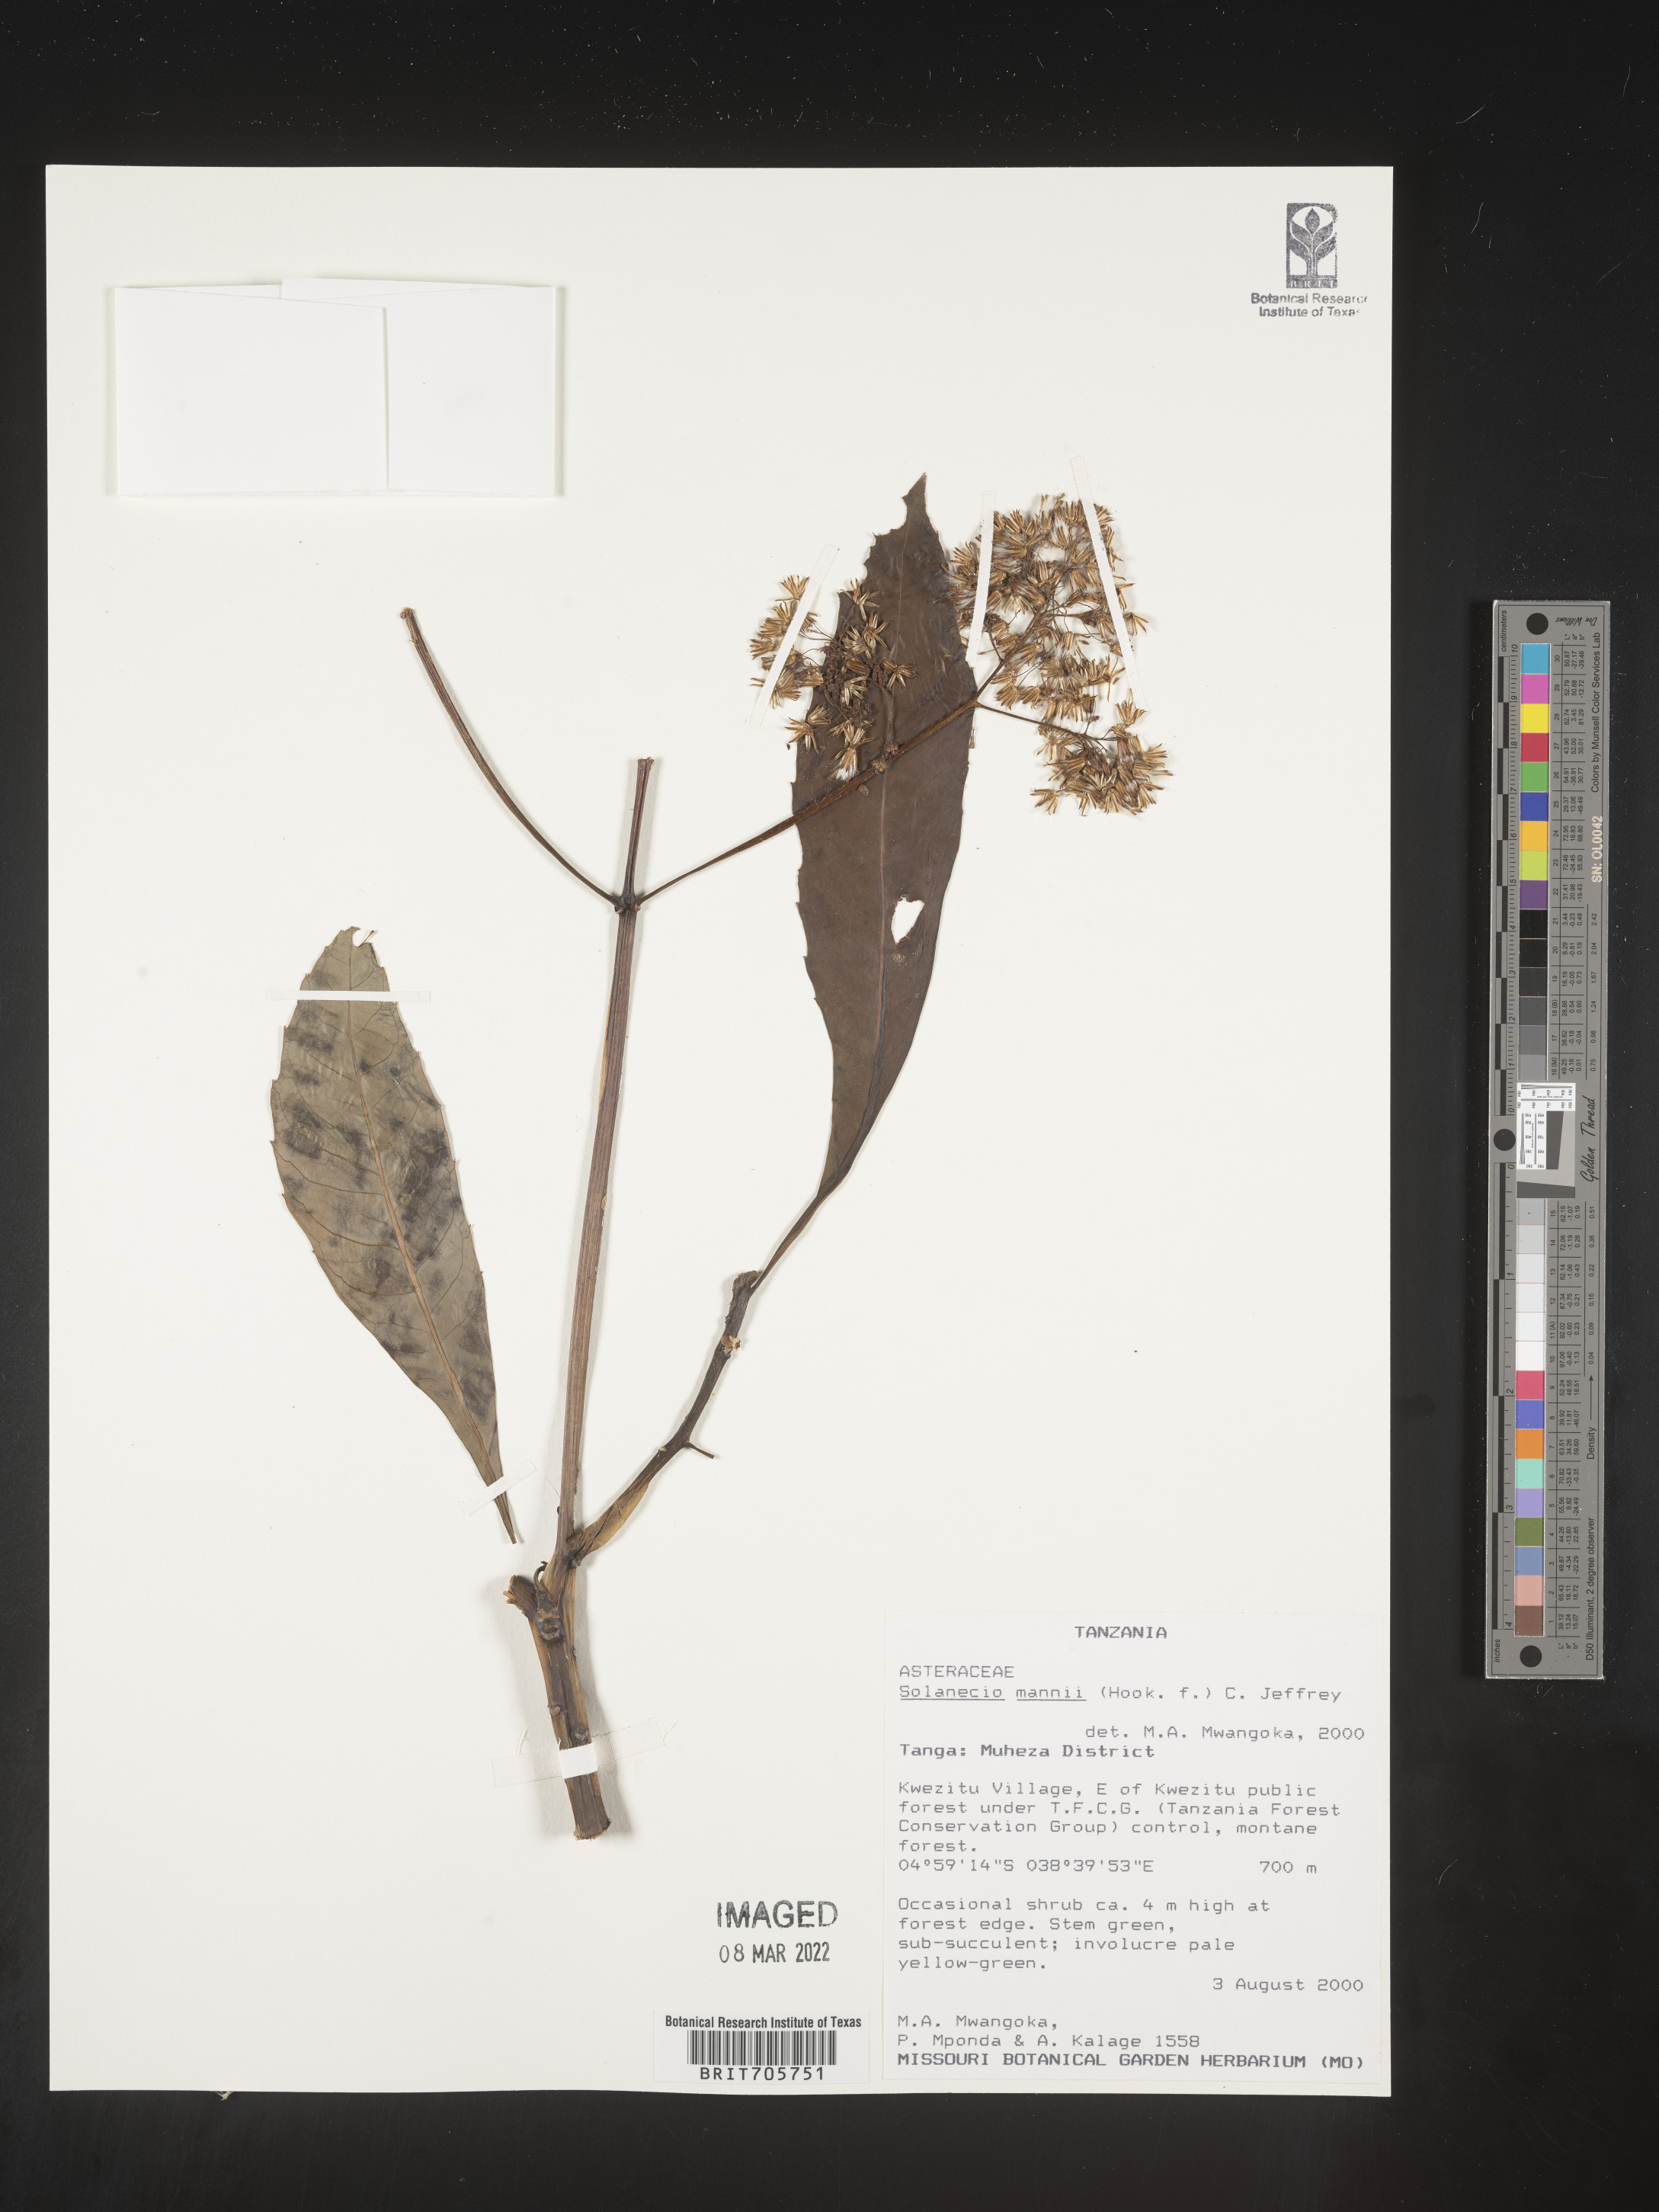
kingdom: Plantae
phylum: Tracheophyta
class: Magnoliopsida
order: Asterales
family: Asteraceae
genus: Solanecio
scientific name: Solanecio
